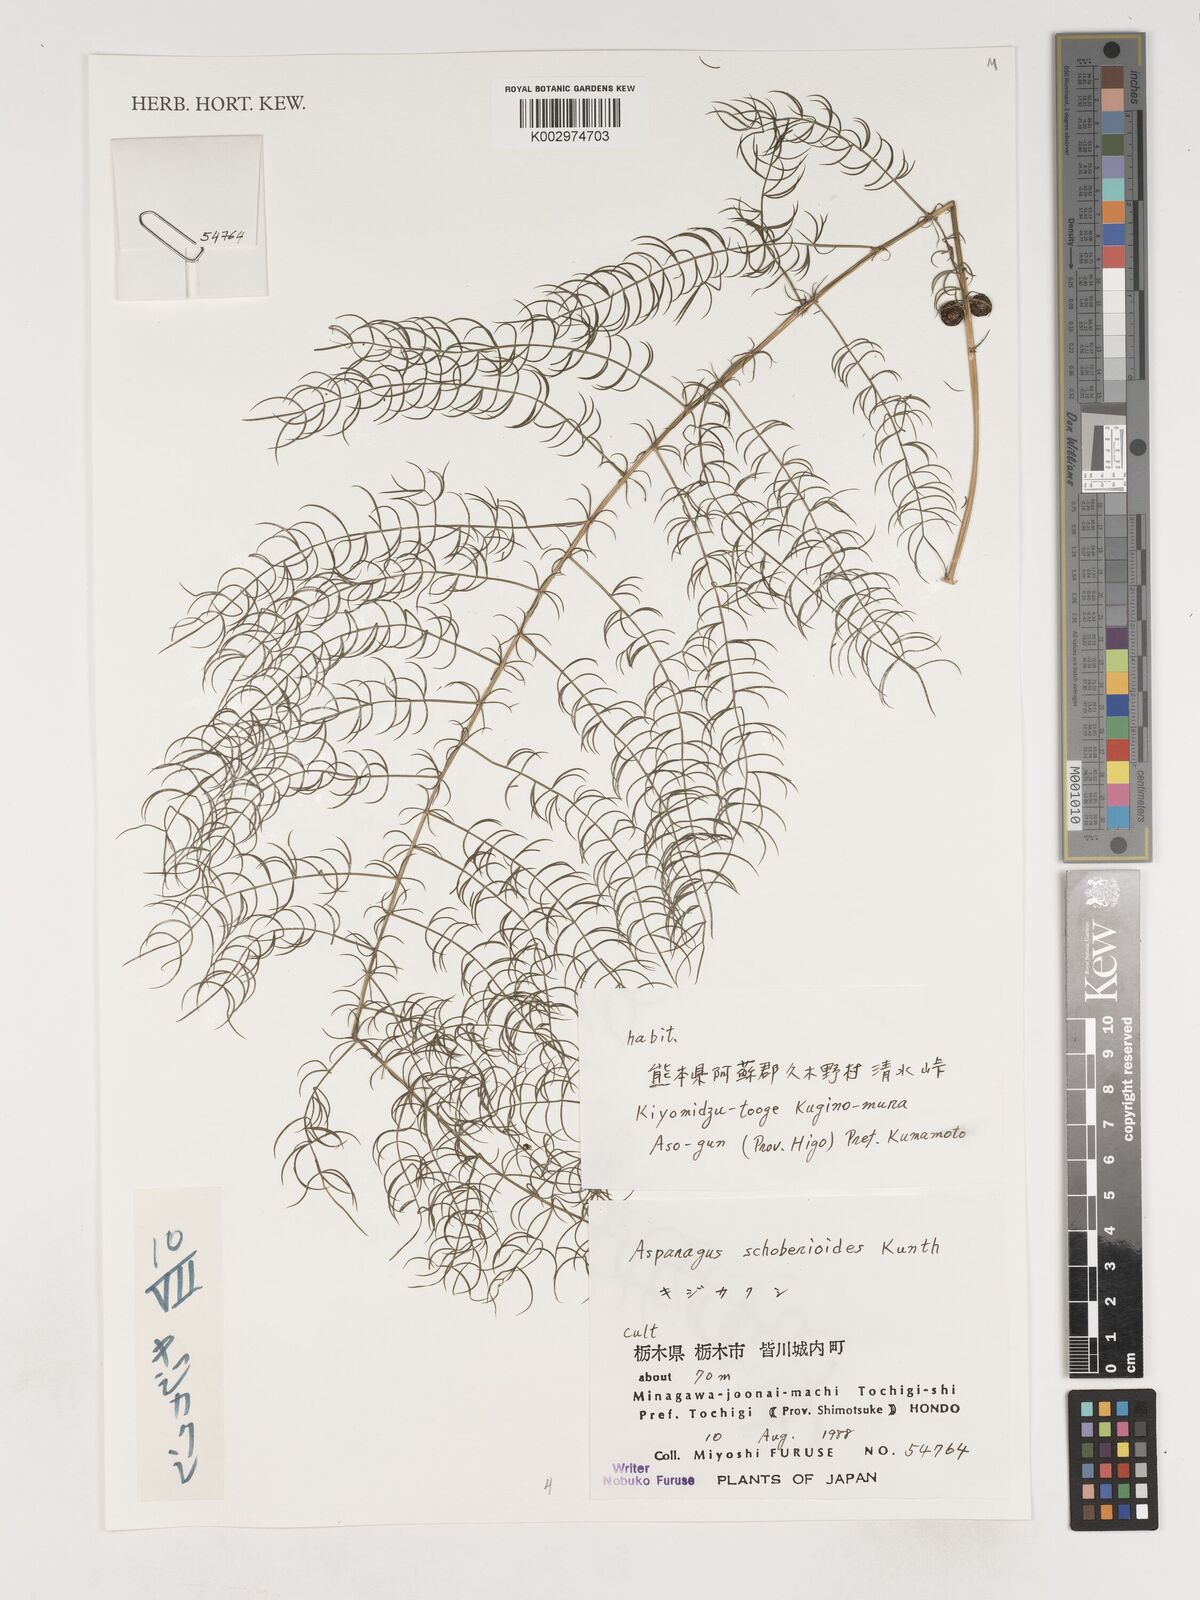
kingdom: Plantae
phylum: Tracheophyta
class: Liliopsida
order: Asparagales
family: Asparagaceae
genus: Asparagus
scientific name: Asparagus schoberioides
